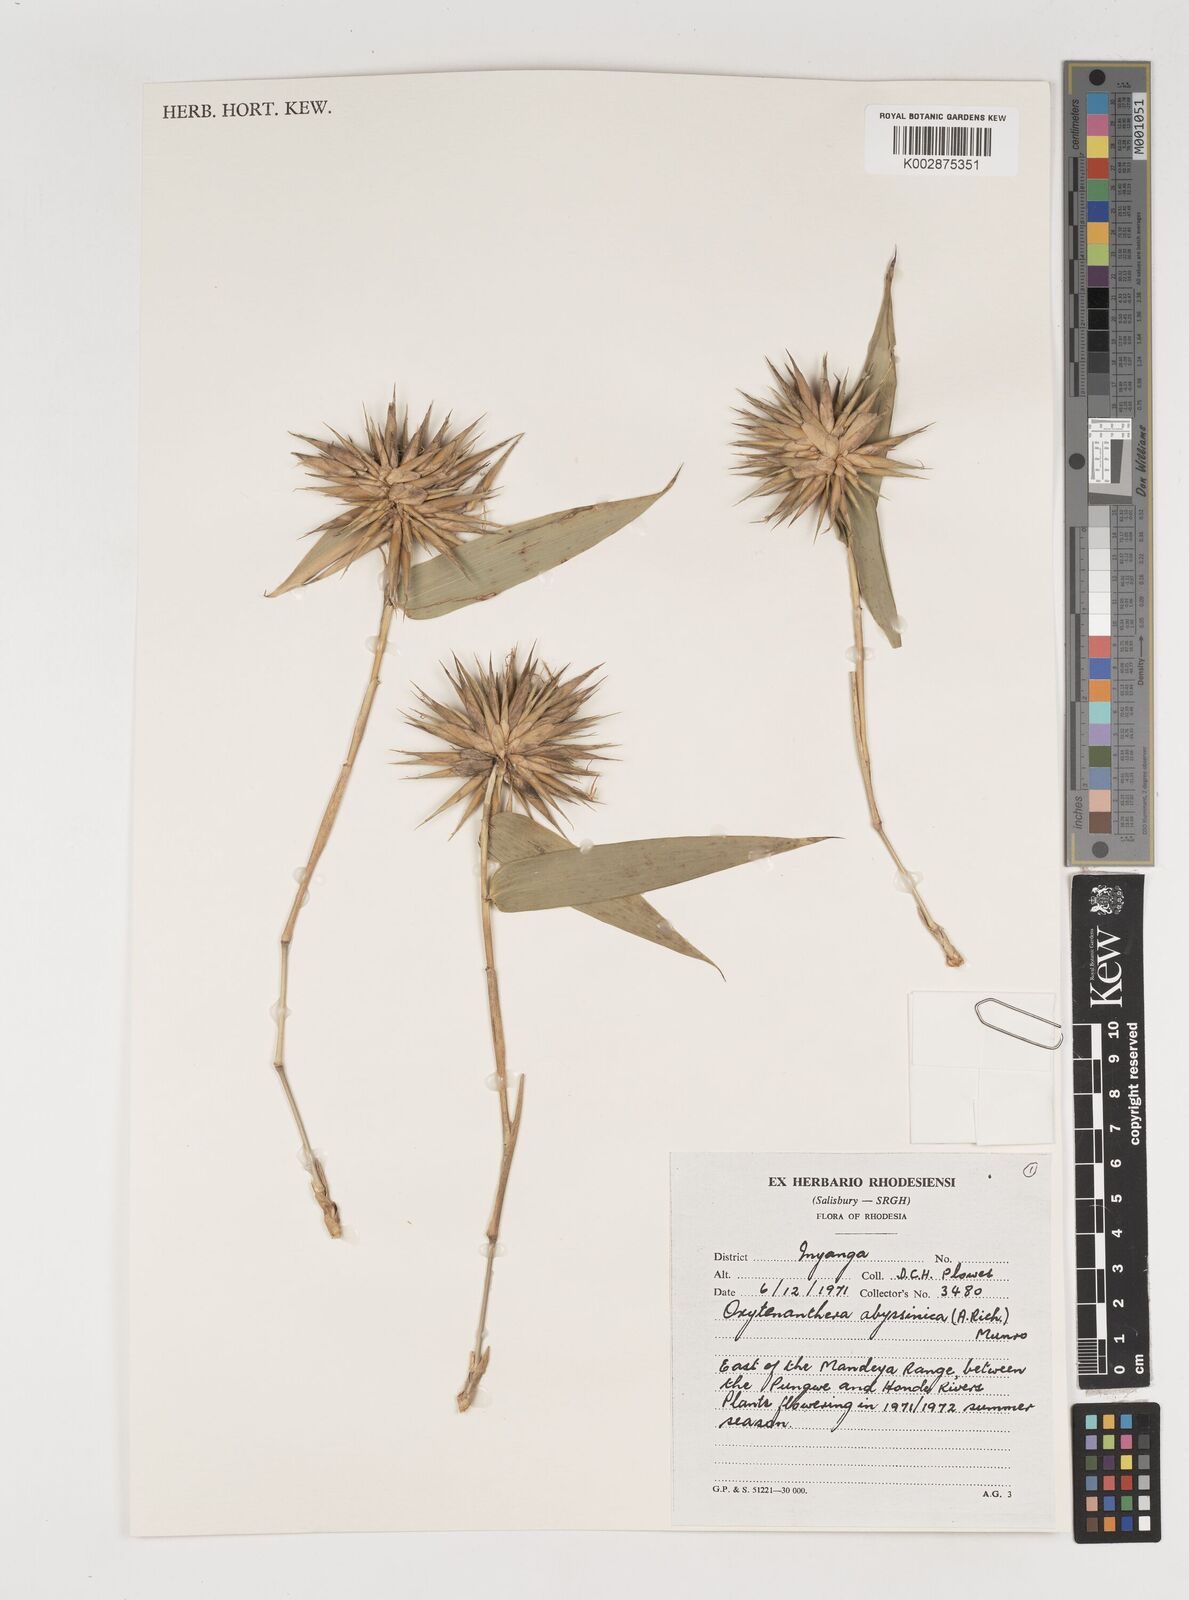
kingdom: Plantae
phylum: Tracheophyta
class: Liliopsida
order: Poales
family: Poaceae
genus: Oxytenanthera
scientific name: Oxytenanthera abyssinica
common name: Wine bamboo
